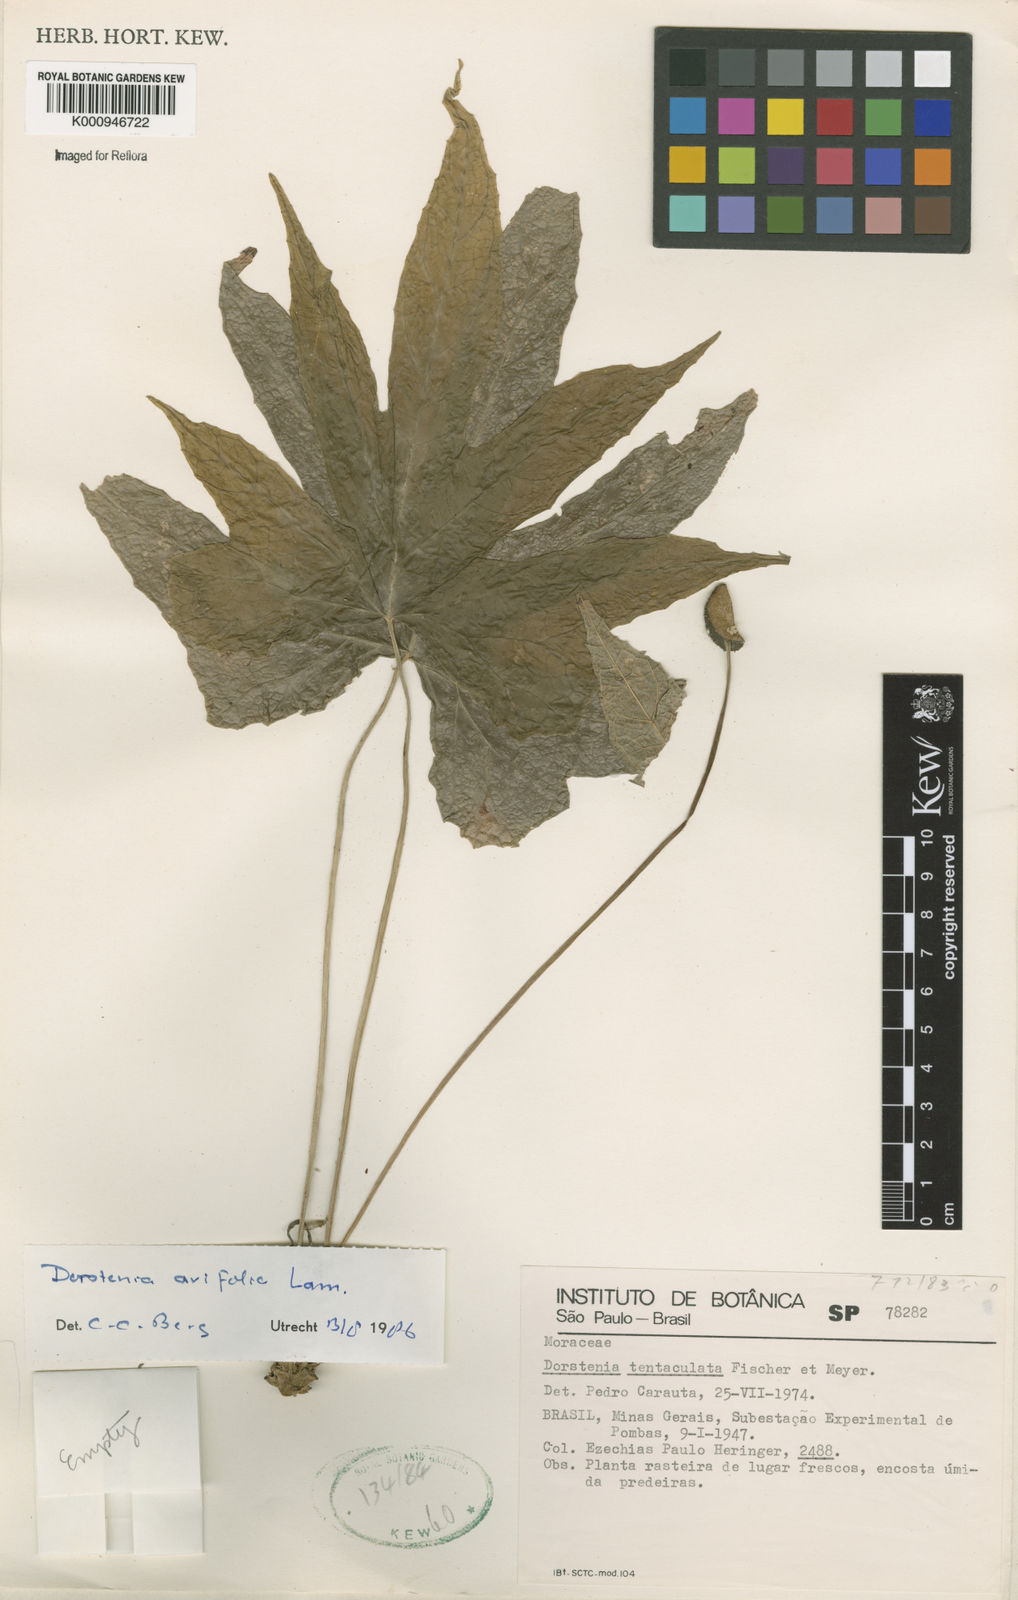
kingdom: Plantae
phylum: Tracheophyta
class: Magnoliopsida
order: Rosales
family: Moraceae
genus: Dorstenia
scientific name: Dorstenia tentaculata
